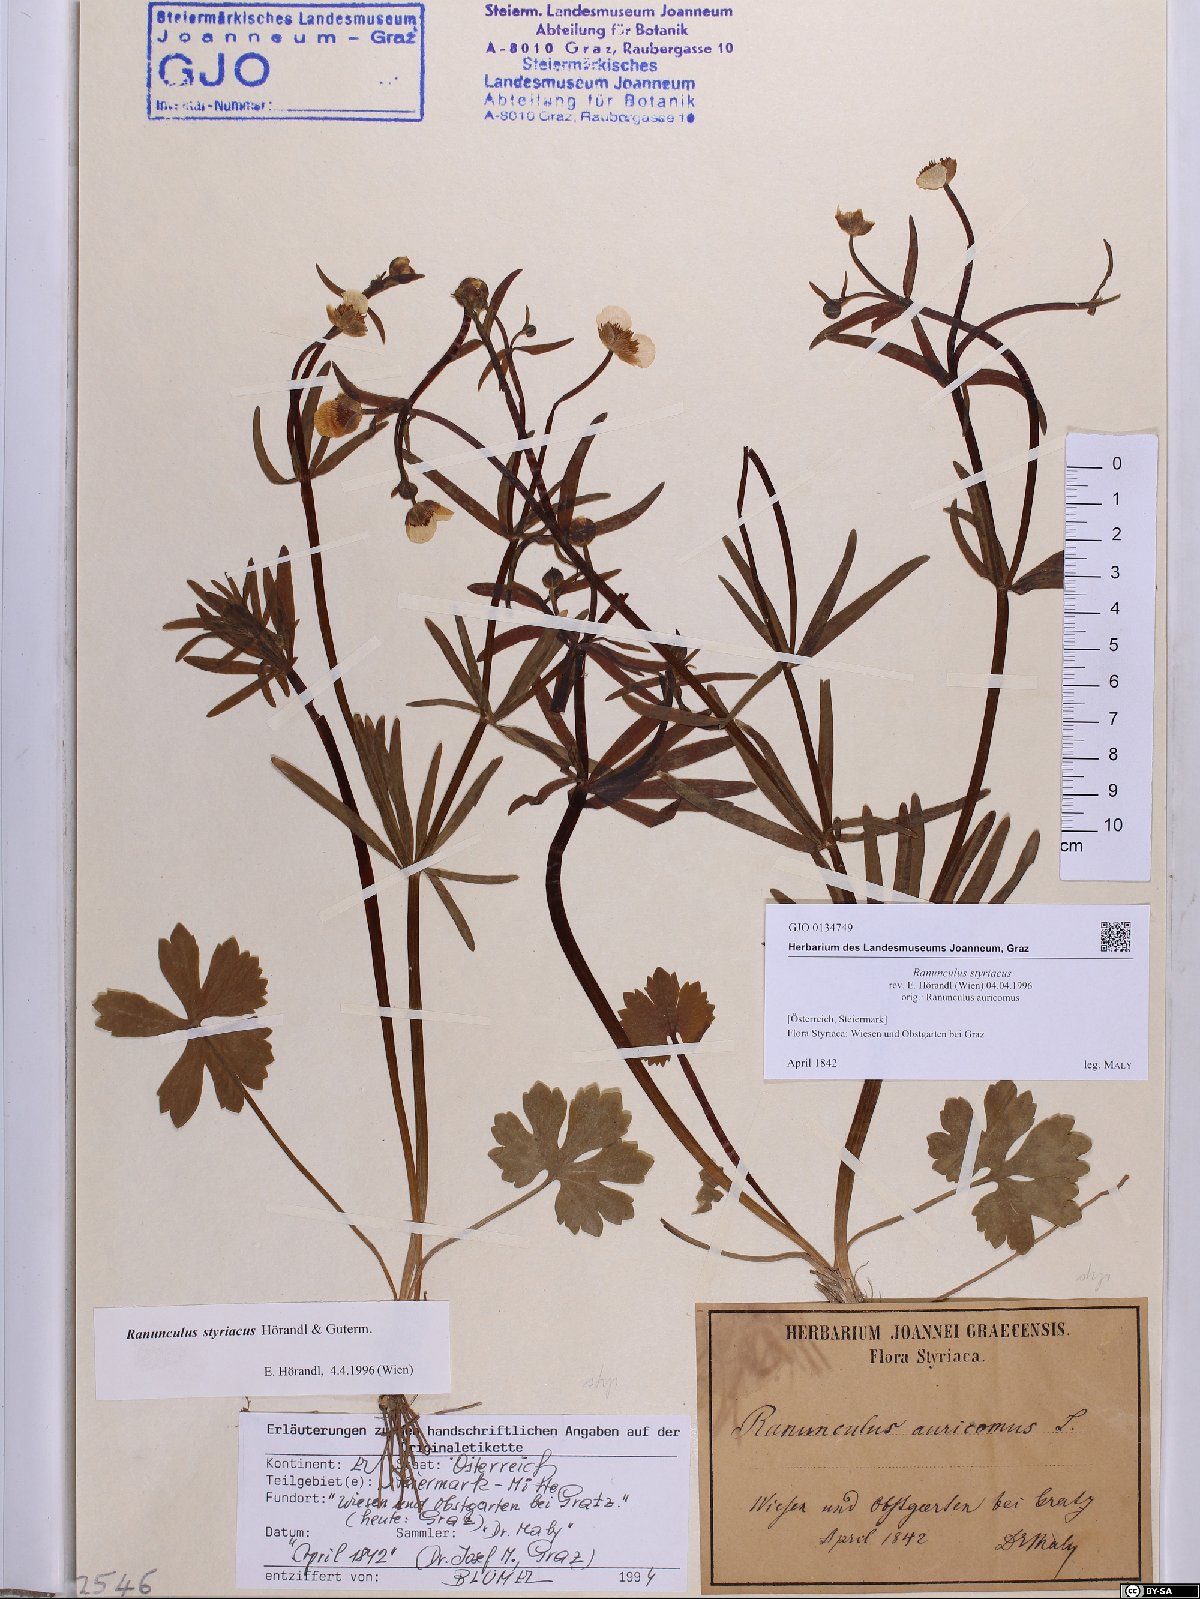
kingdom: Plantae
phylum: Tracheophyta
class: Magnoliopsida
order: Ranunculales
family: Ranunculaceae
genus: Ranunculus
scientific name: Ranunculus styriacus
